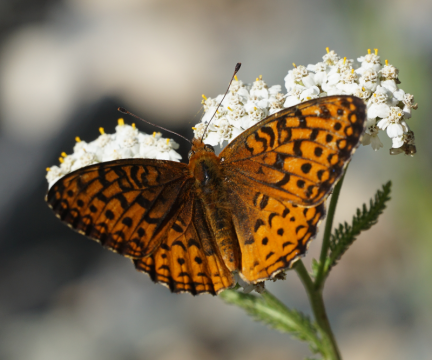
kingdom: Animalia
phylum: Arthropoda
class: Insecta
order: Lepidoptera
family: Nymphalidae
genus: Speyeria
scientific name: Speyeria atlantis
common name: Atlantis Fritillary
